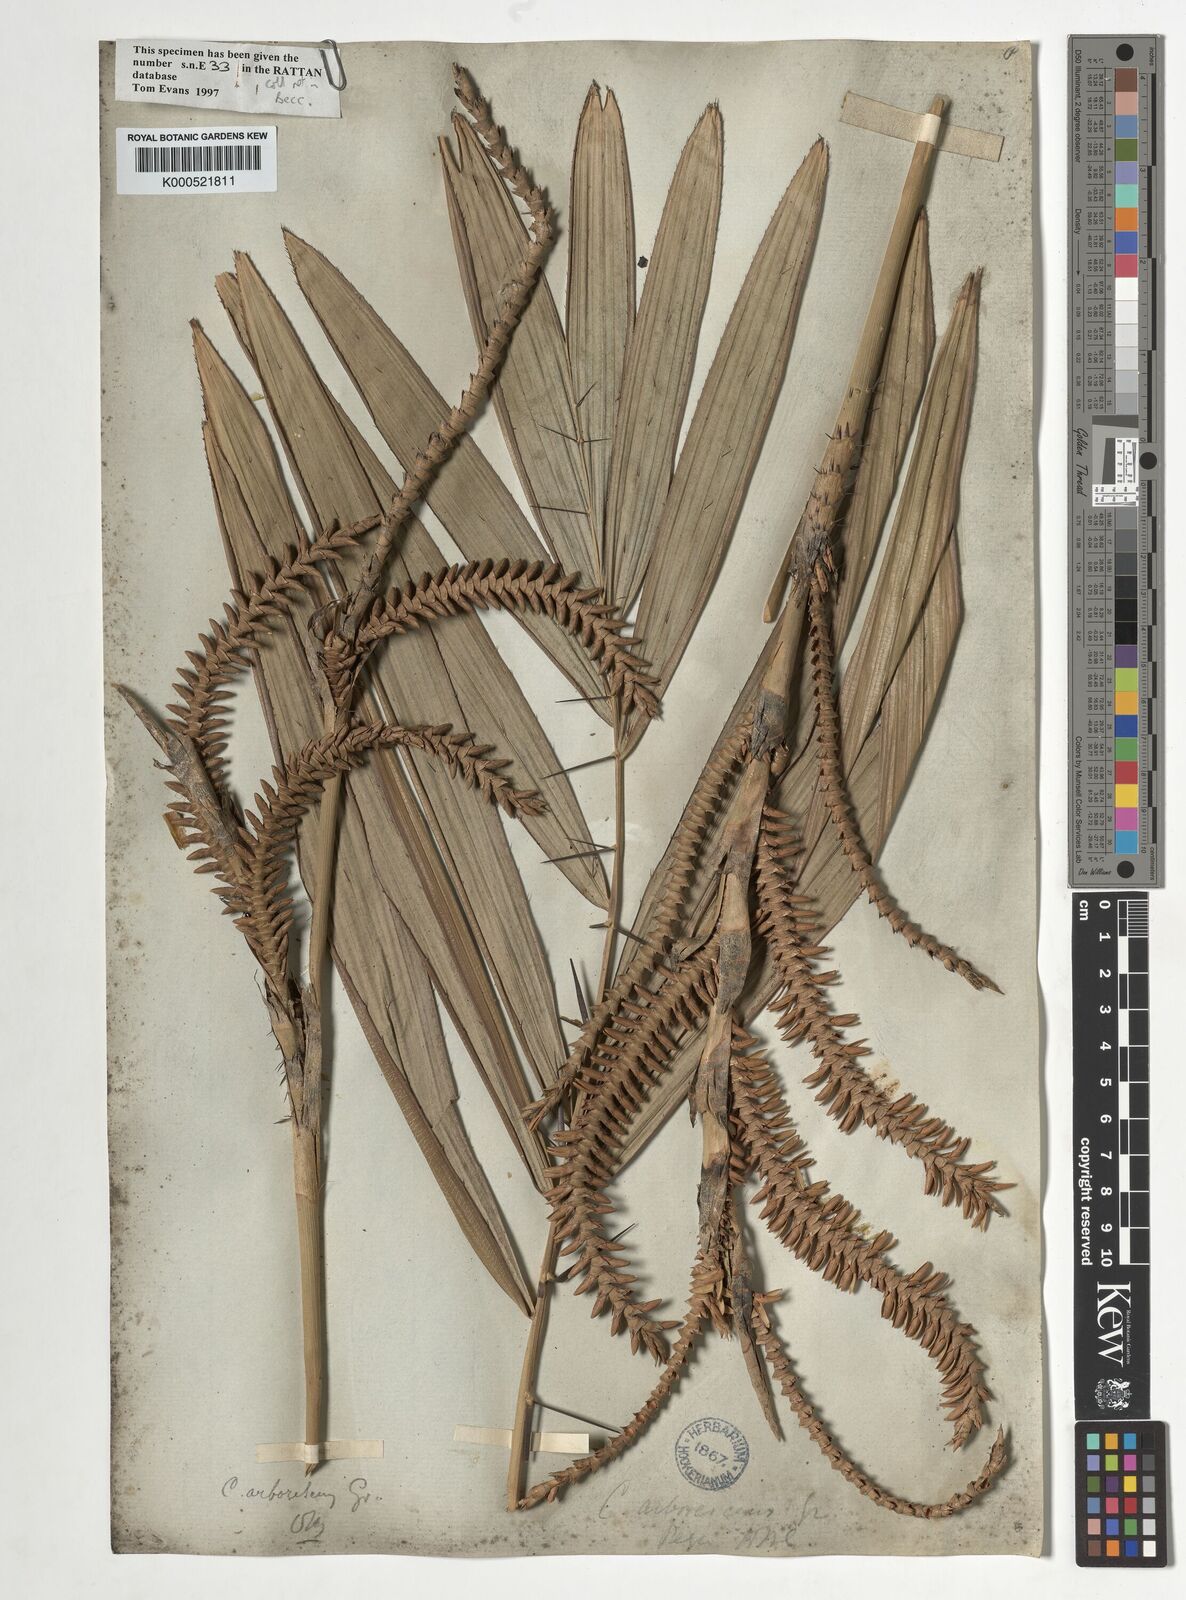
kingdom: Plantae
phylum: Tracheophyta
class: Liliopsida
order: Arecales
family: Arecaceae
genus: Calamus
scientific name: Calamus arborescens
